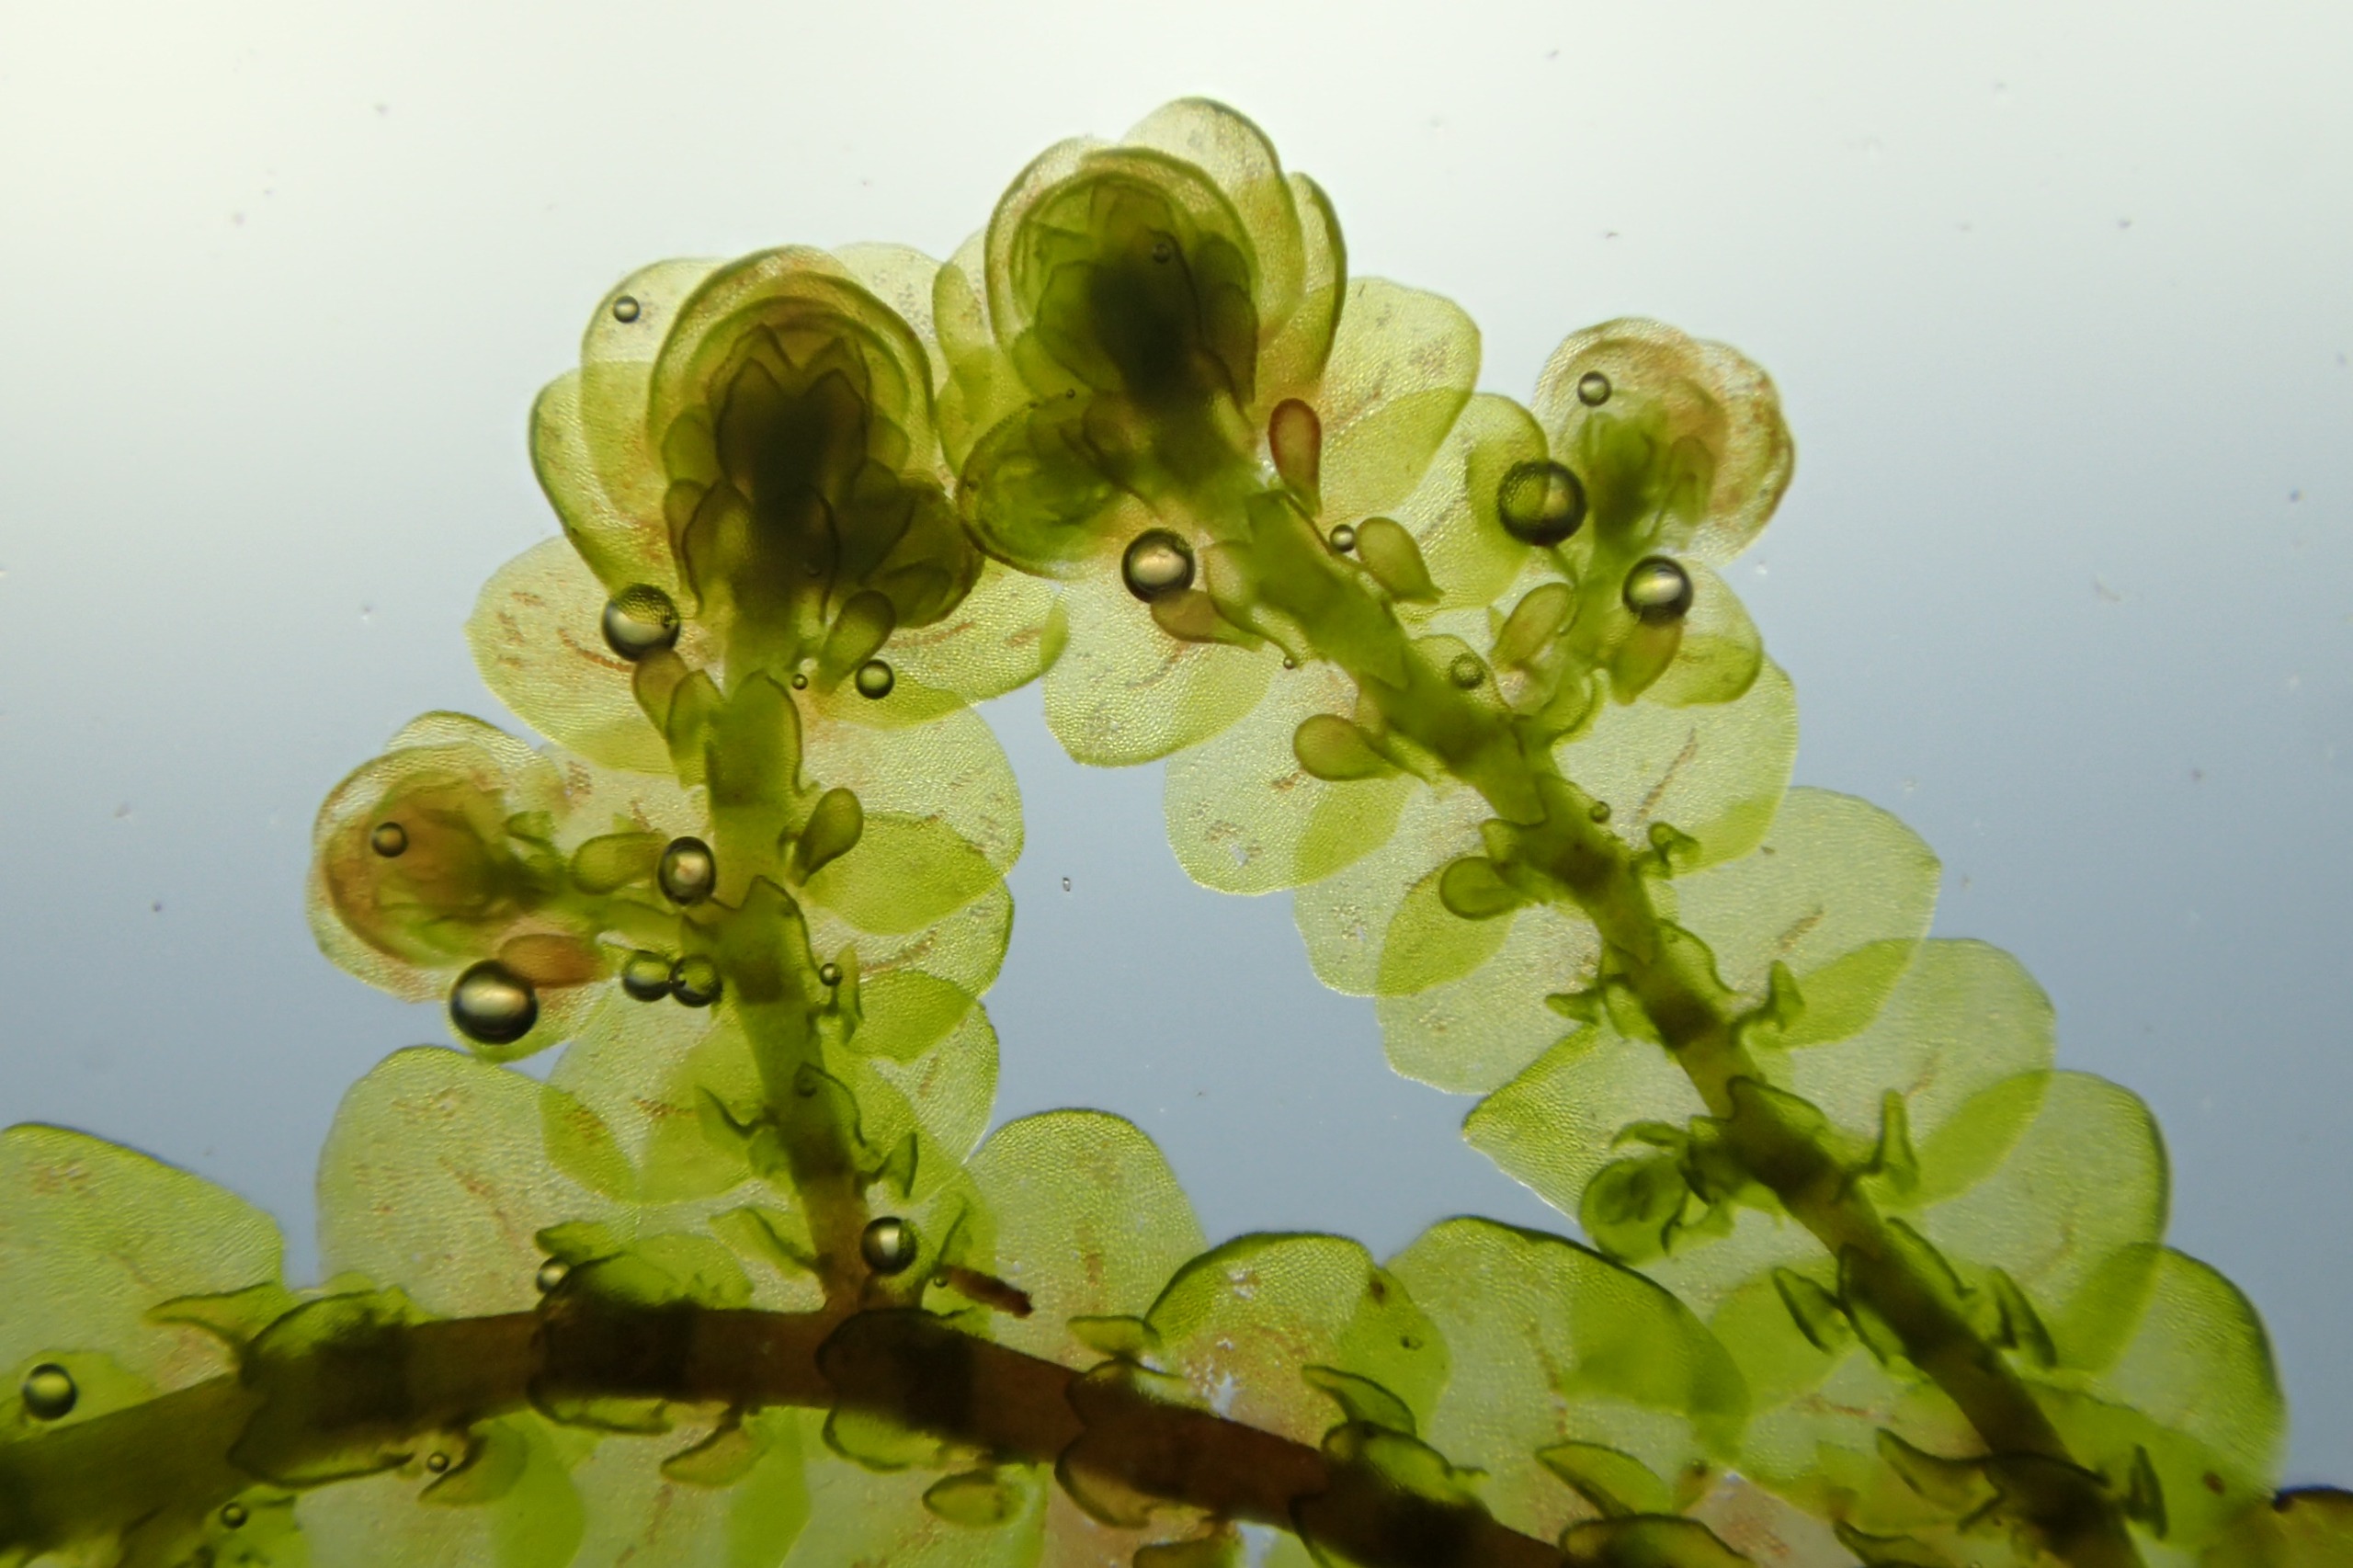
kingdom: Plantae
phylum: Marchantiophyta
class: Jungermanniopsida
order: Porellales
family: Frullaniaceae
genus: Frullania
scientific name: Frullania tamarisci
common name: Glinsende bronzemos
